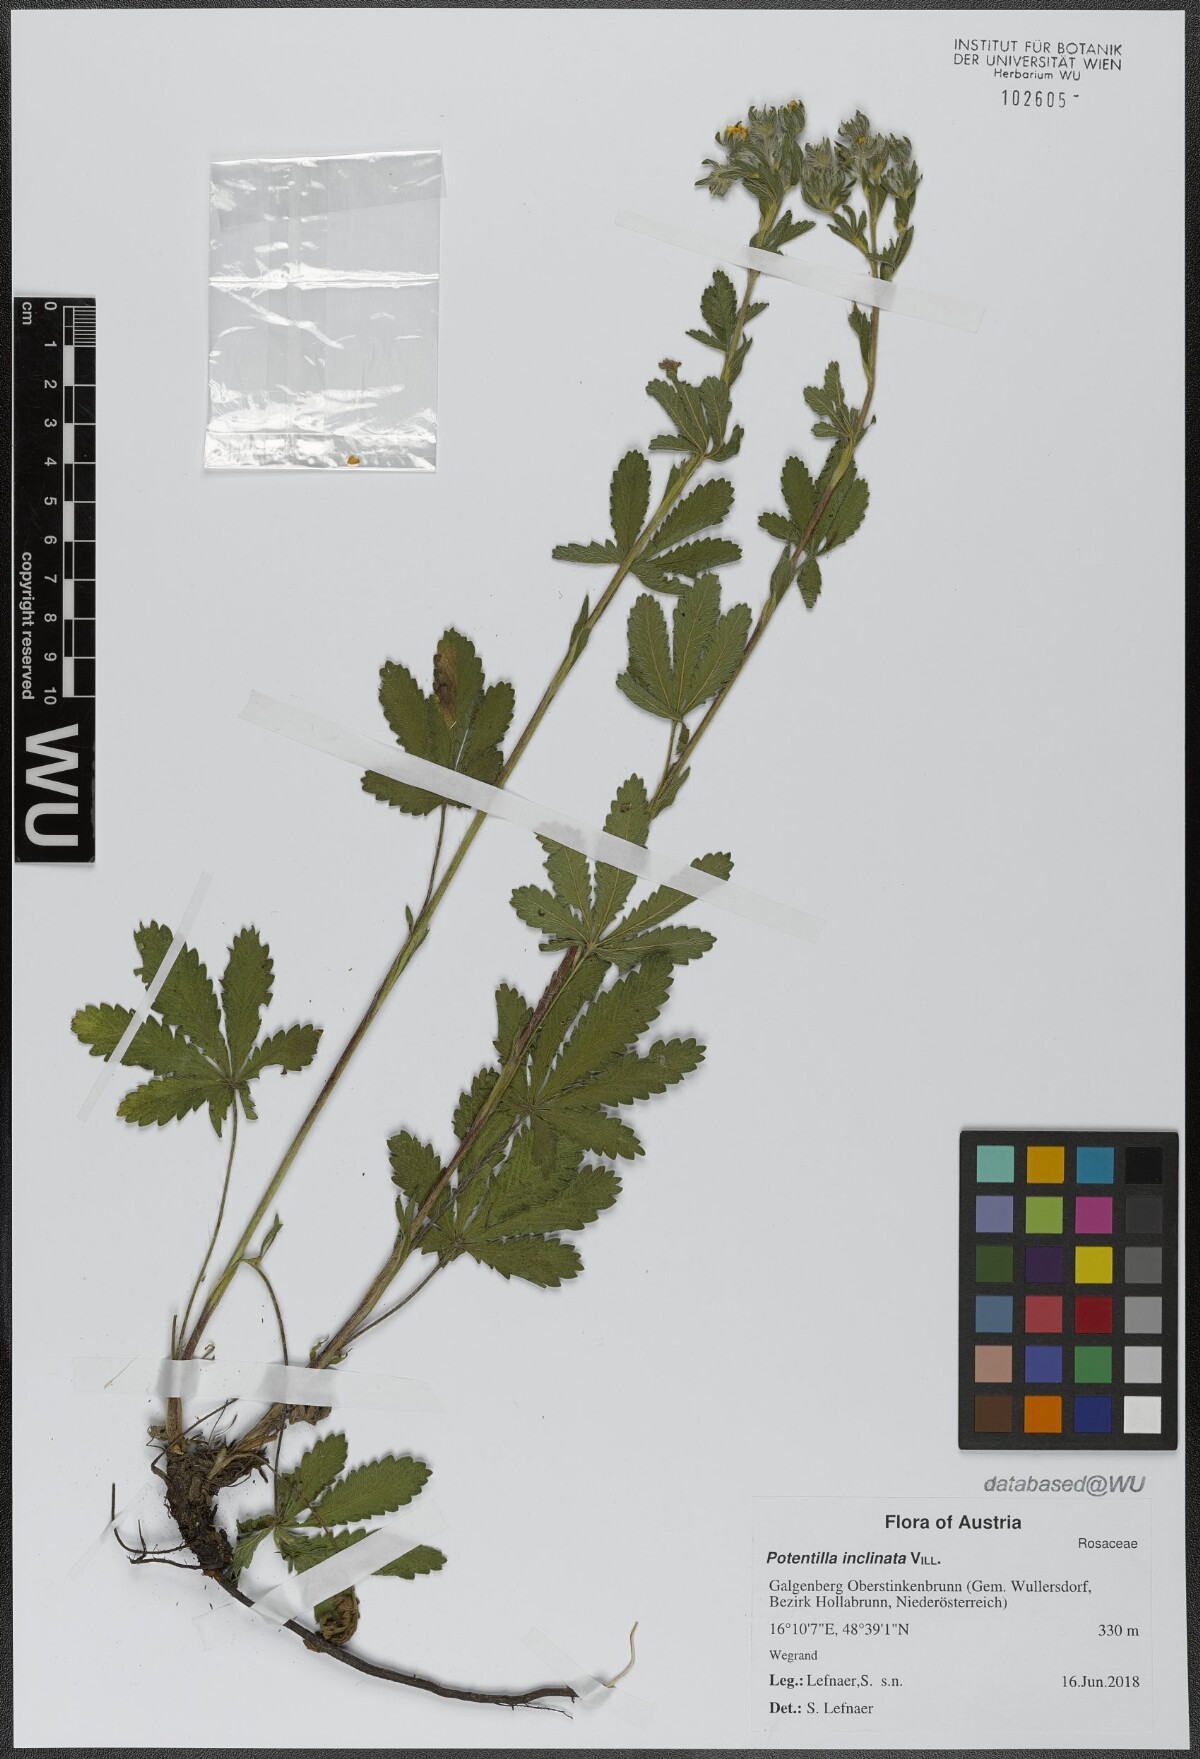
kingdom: Plantae
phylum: Tracheophyta
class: Magnoliopsida
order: Rosales
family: Rosaceae
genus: Potentilla
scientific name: Potentilla inclinata
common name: Grey cinquefoil
